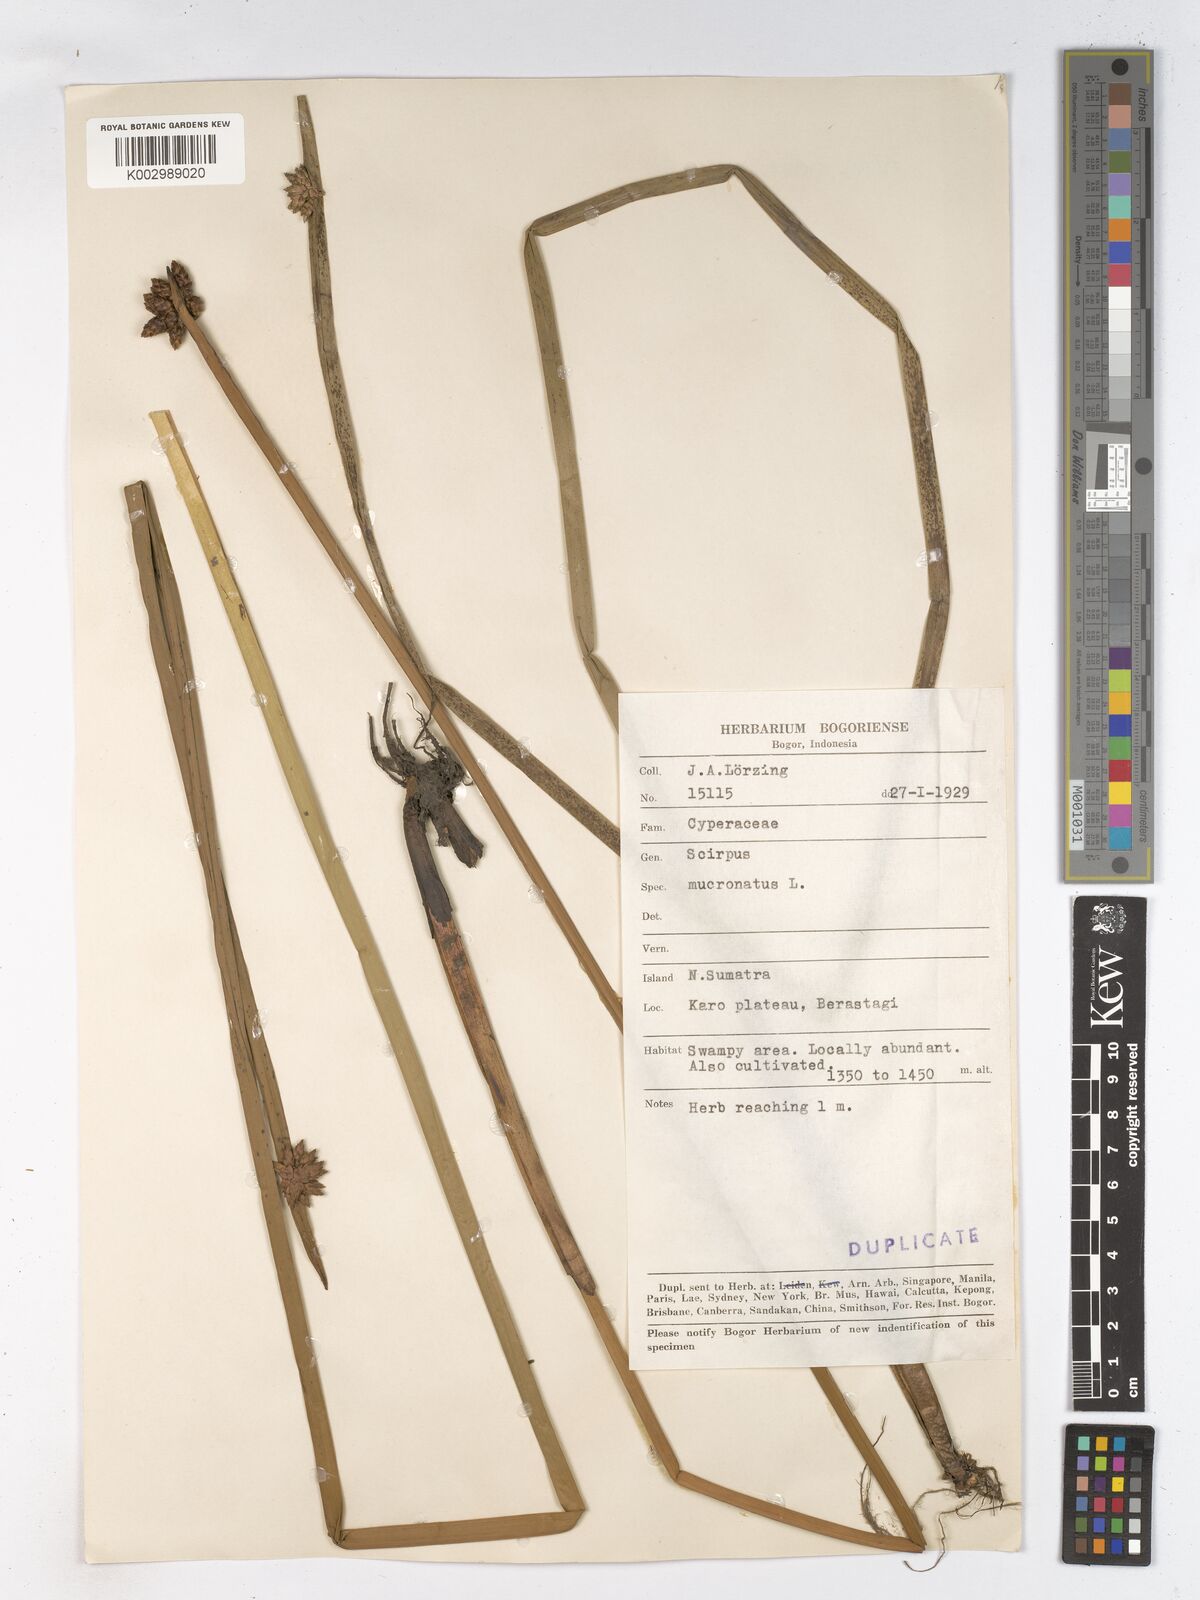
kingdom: Plantae
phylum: Tracheophyta
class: Liliopsida
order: Poales
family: Cyperaceae
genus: Schoenoplectiella
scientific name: Schoenoplectiella mucronata
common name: Bog bulrush
